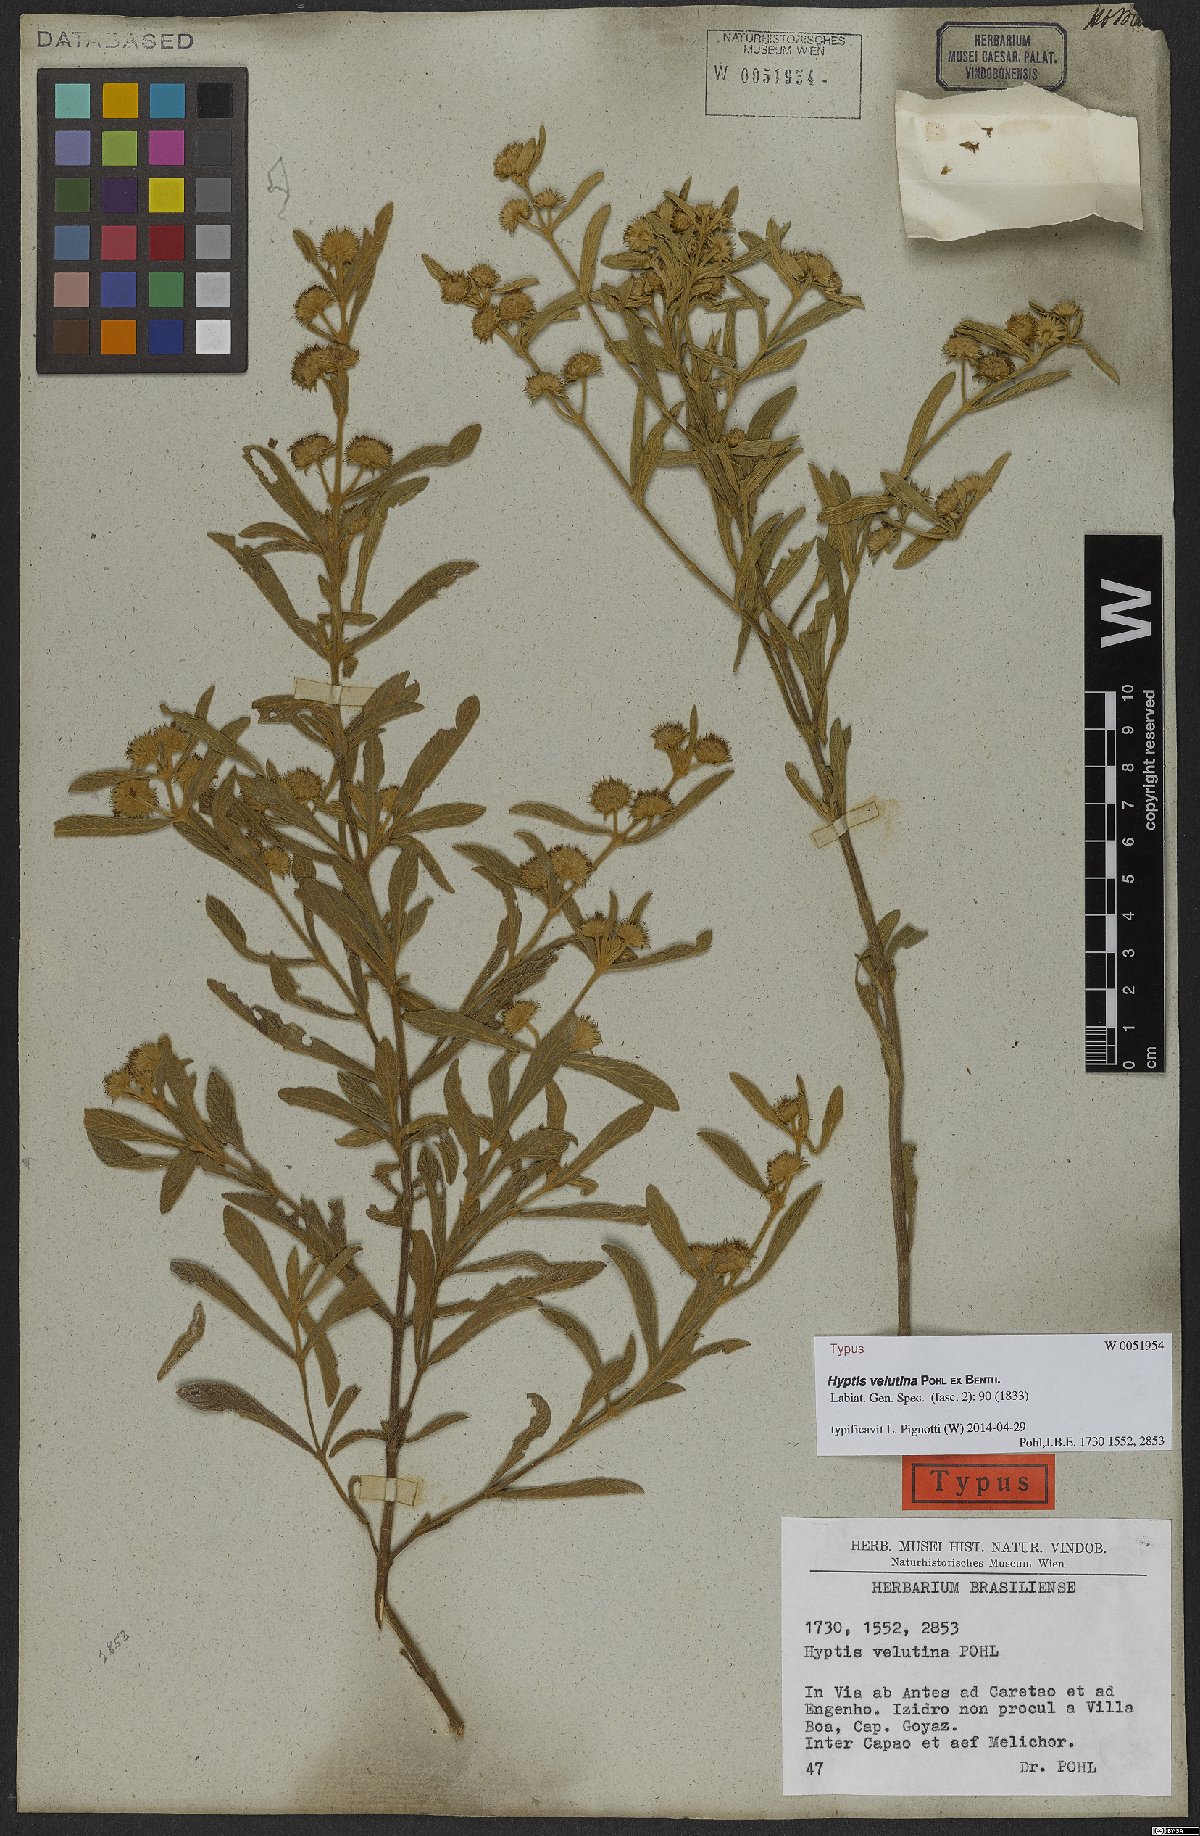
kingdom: Plantae
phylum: Tracheophyta
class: Magnoliopsida
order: Lamiales
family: Lamiaceae
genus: Hyptis
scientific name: Hyptis velutina
